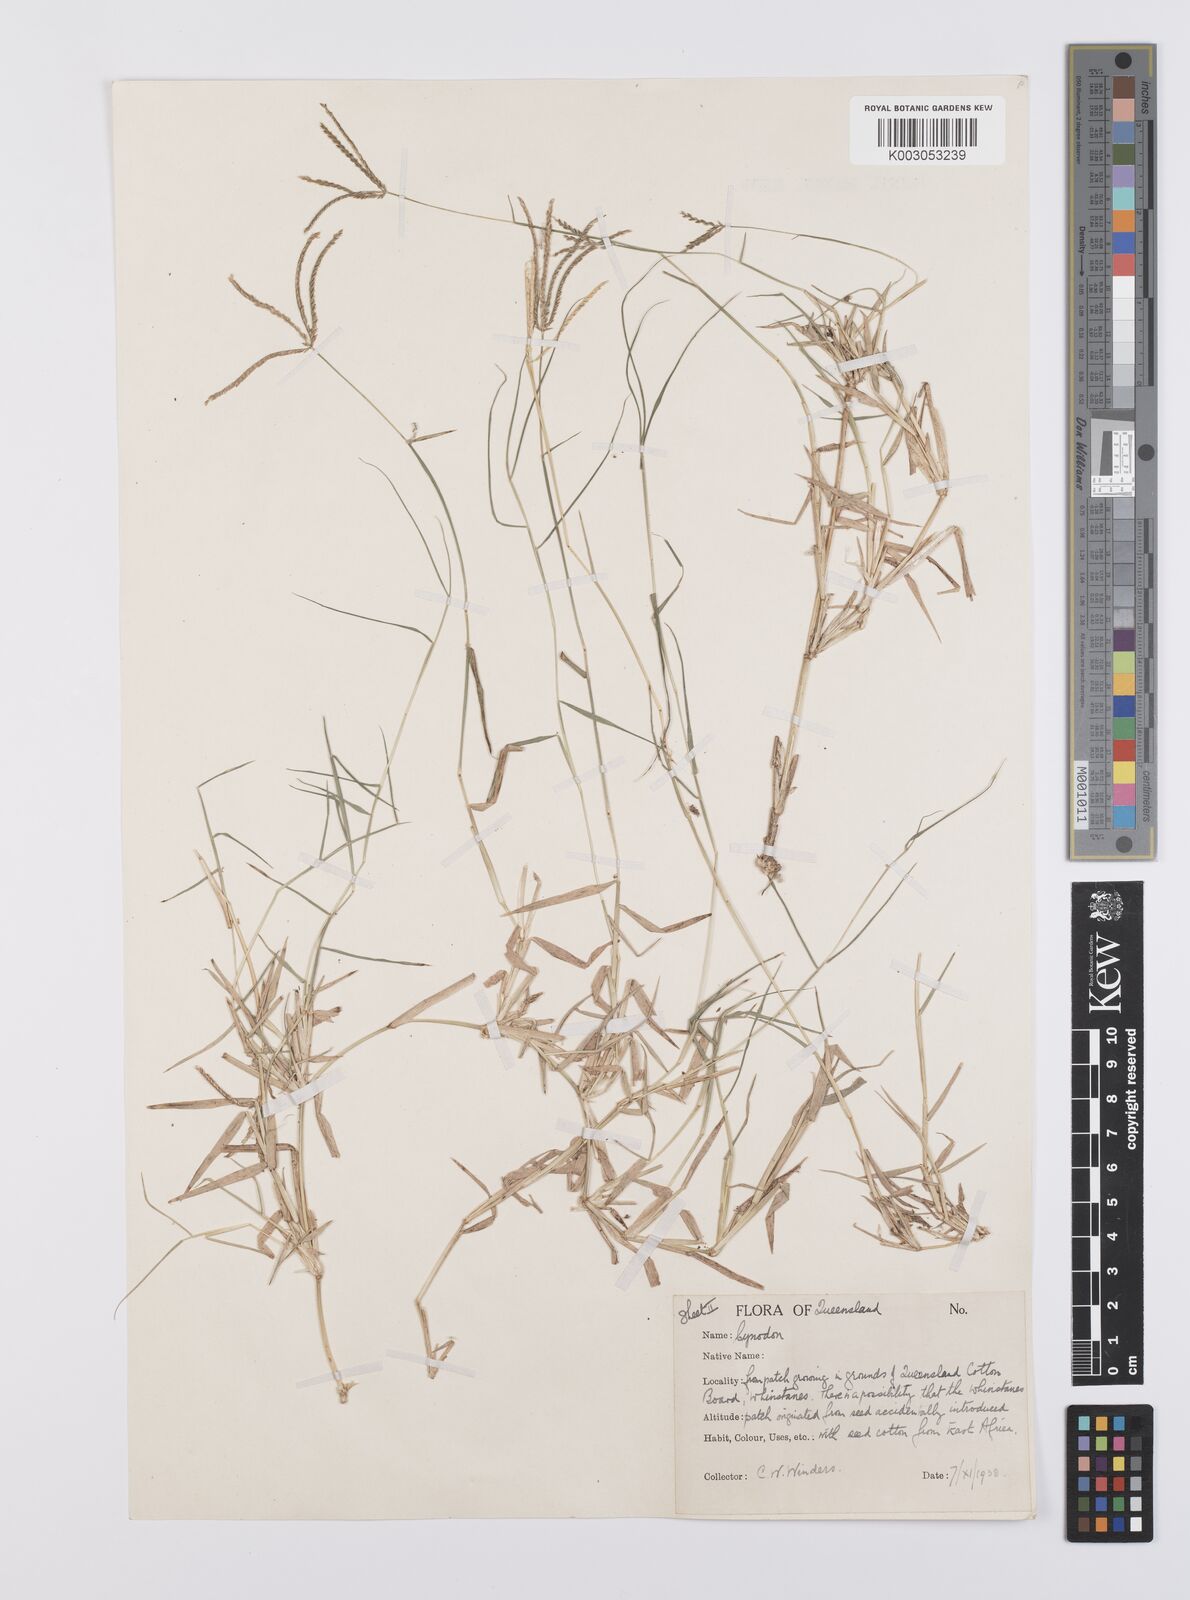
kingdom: Plantae
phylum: Tracheophyta
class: Liliopsida
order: Poales
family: Poaceae
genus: Cynodon
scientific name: Cynodon dactylon
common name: Bermuda grass
